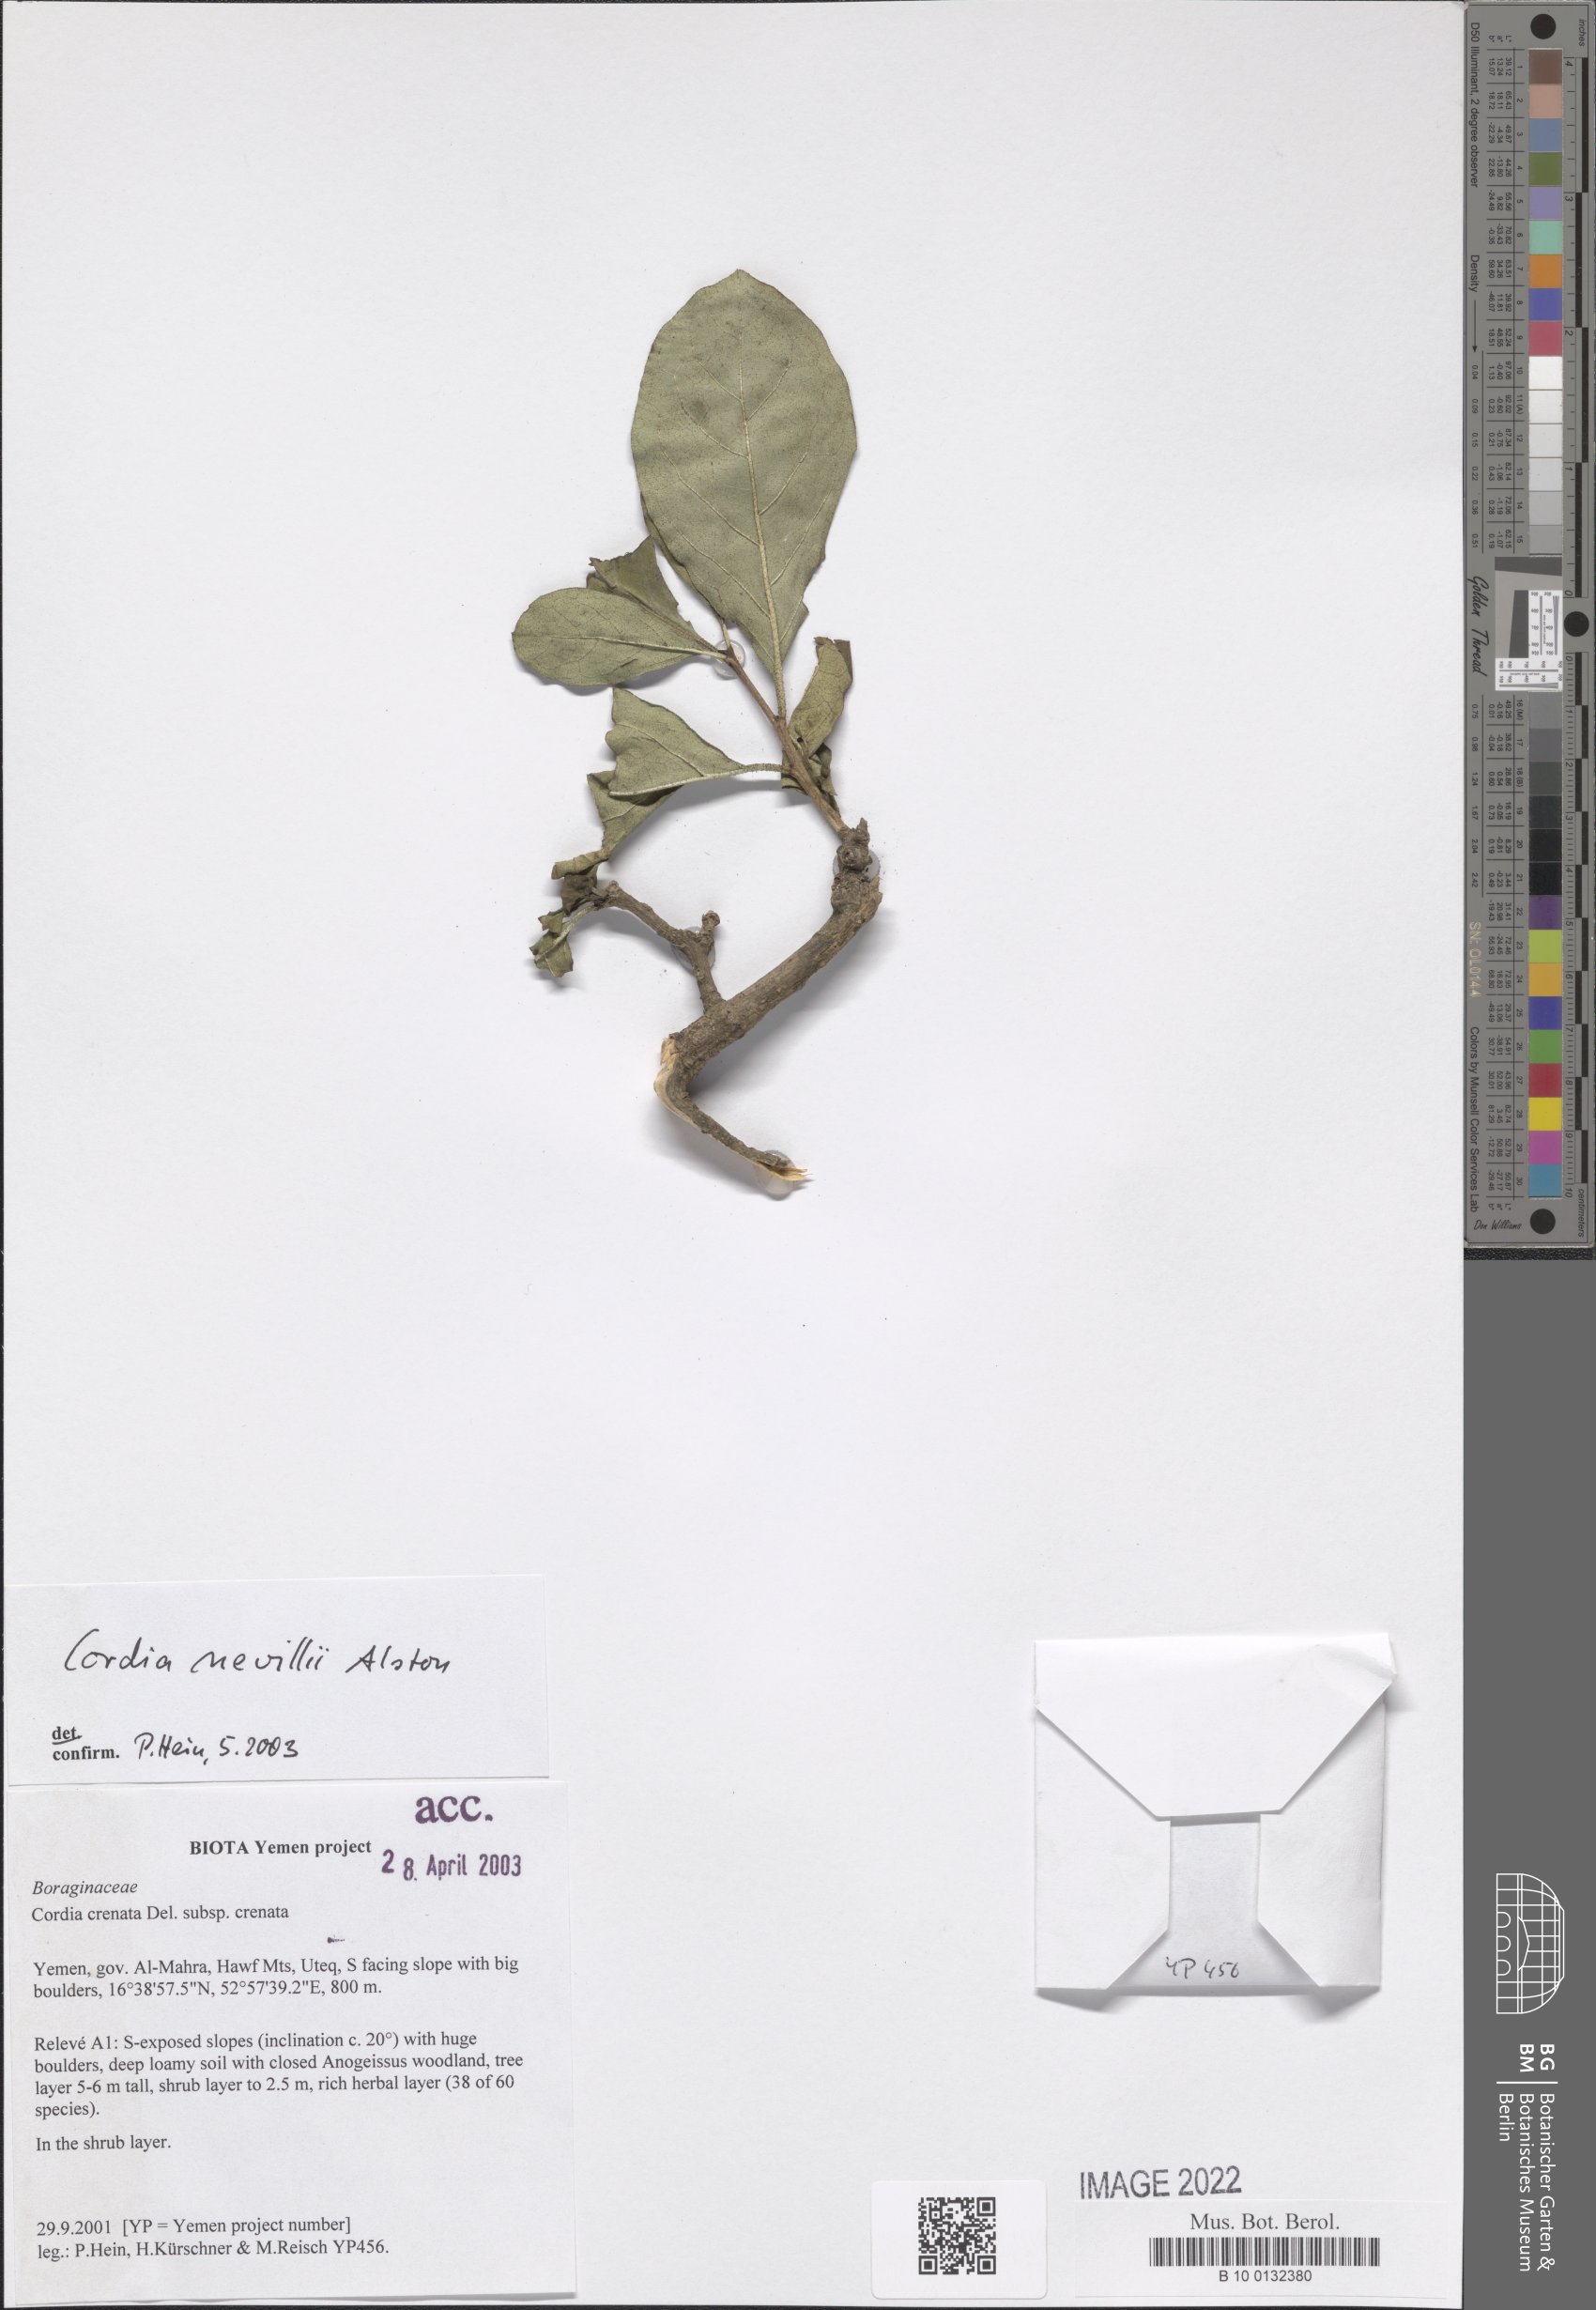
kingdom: Plantae
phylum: Tracheophyta
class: Magnoliopsida
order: Boraginales
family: Cordiaceae
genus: Cordia
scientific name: Cordia quercifolia
